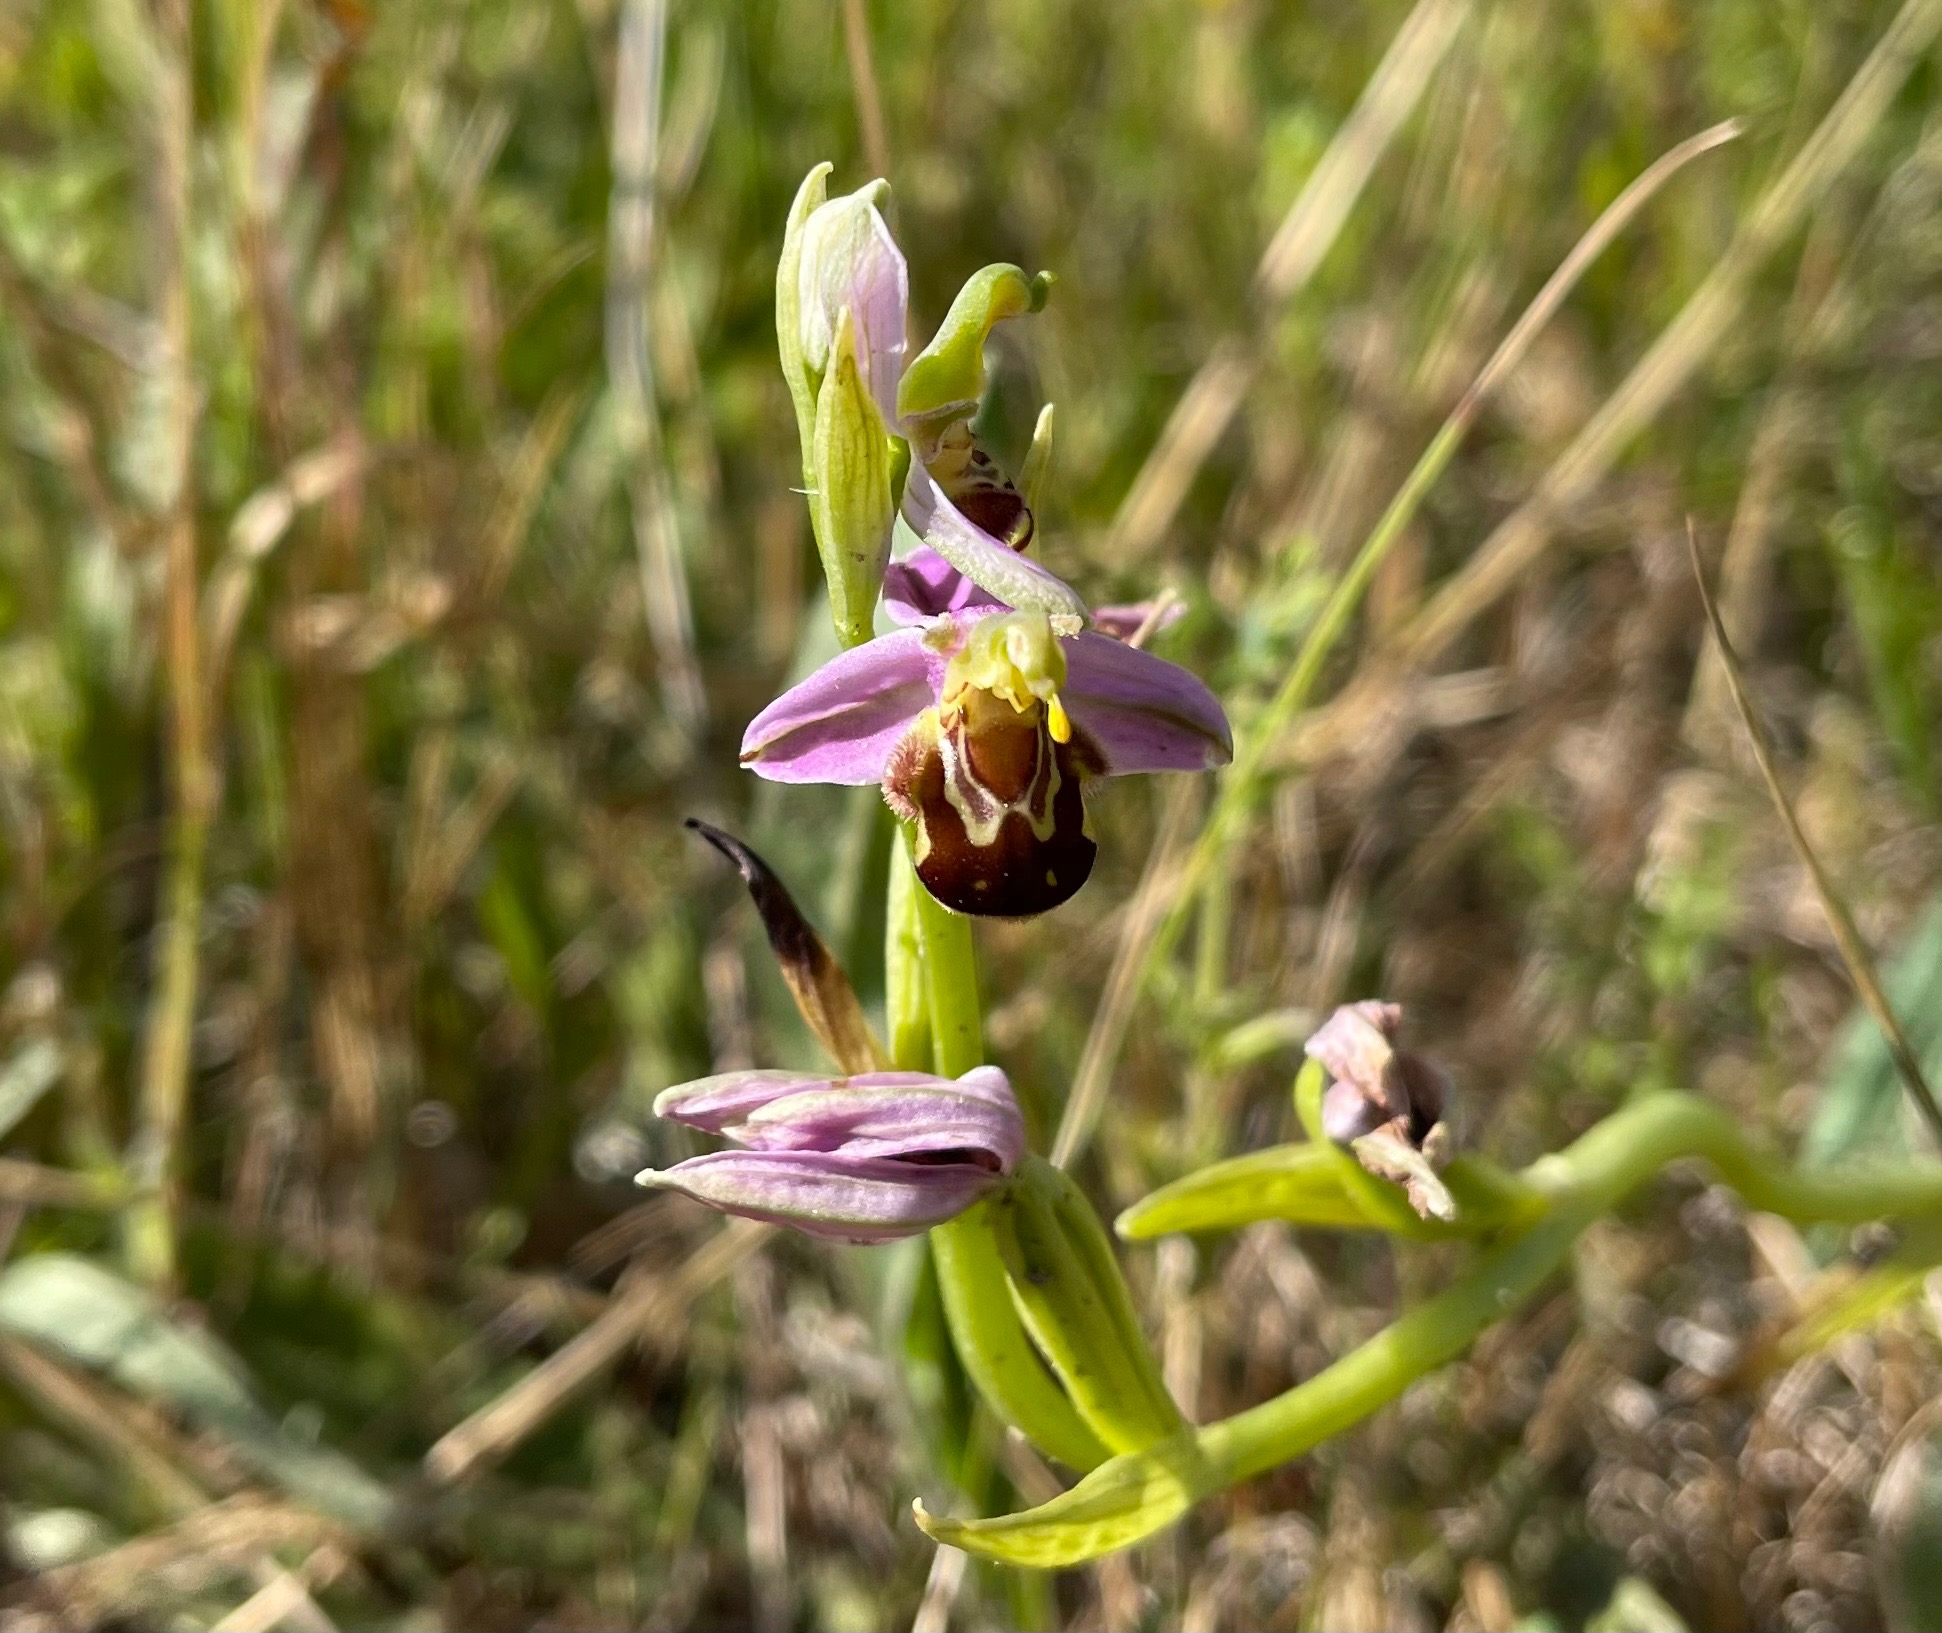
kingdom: Plantae
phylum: Tracheophyta
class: Liliopsida
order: Asparagales
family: Orchidaceae
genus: Ophrys
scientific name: Ophrys apifera
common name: Biblomst
